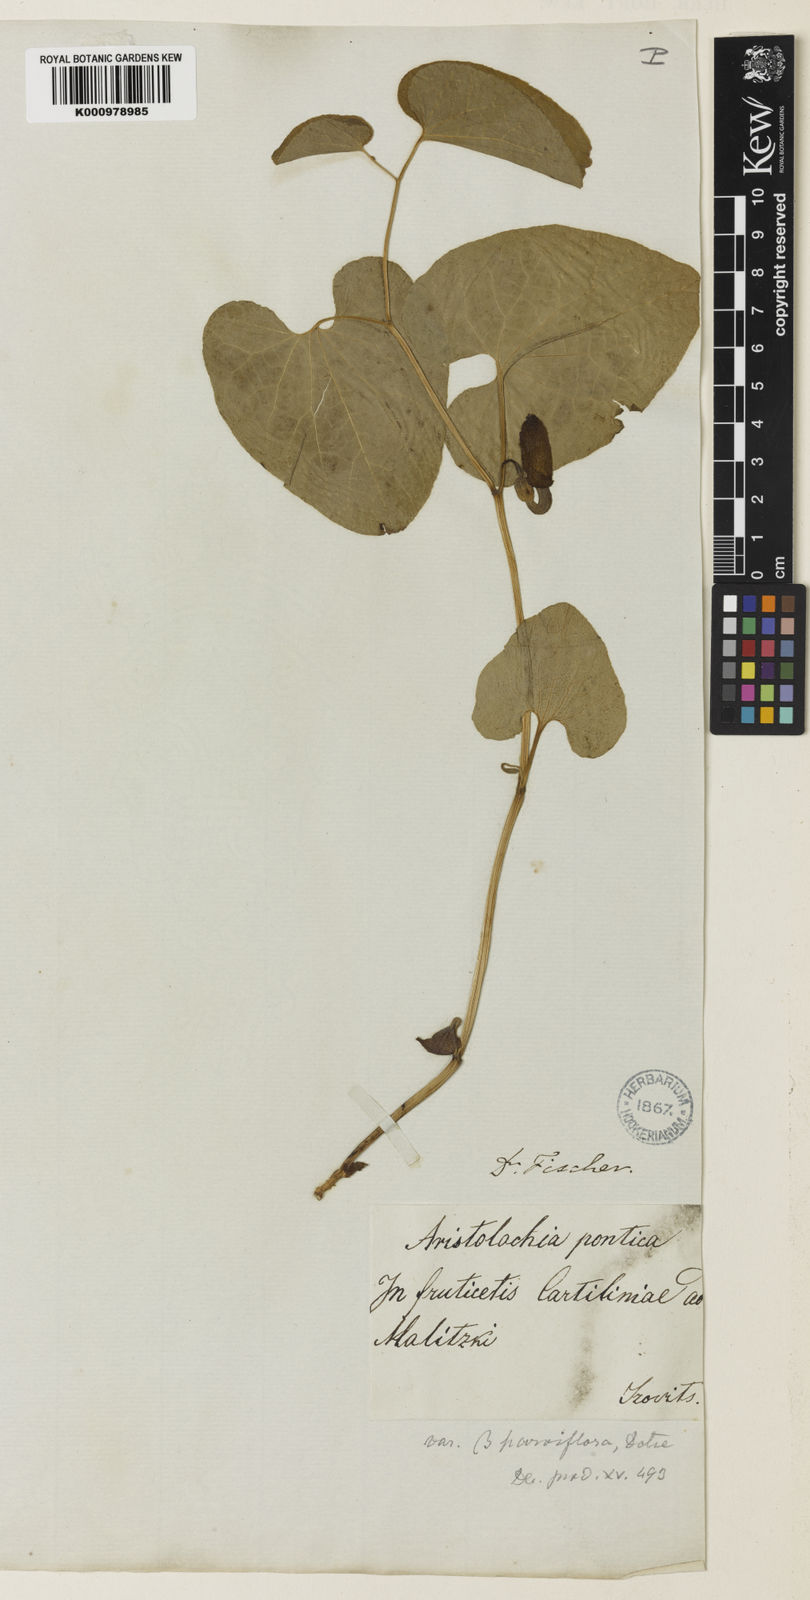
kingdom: Plantae
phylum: Tracheophyta
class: Magnoliopsida
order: Piperales
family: Aristolochiaceae
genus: Aristolochia
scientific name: Aristolochia
